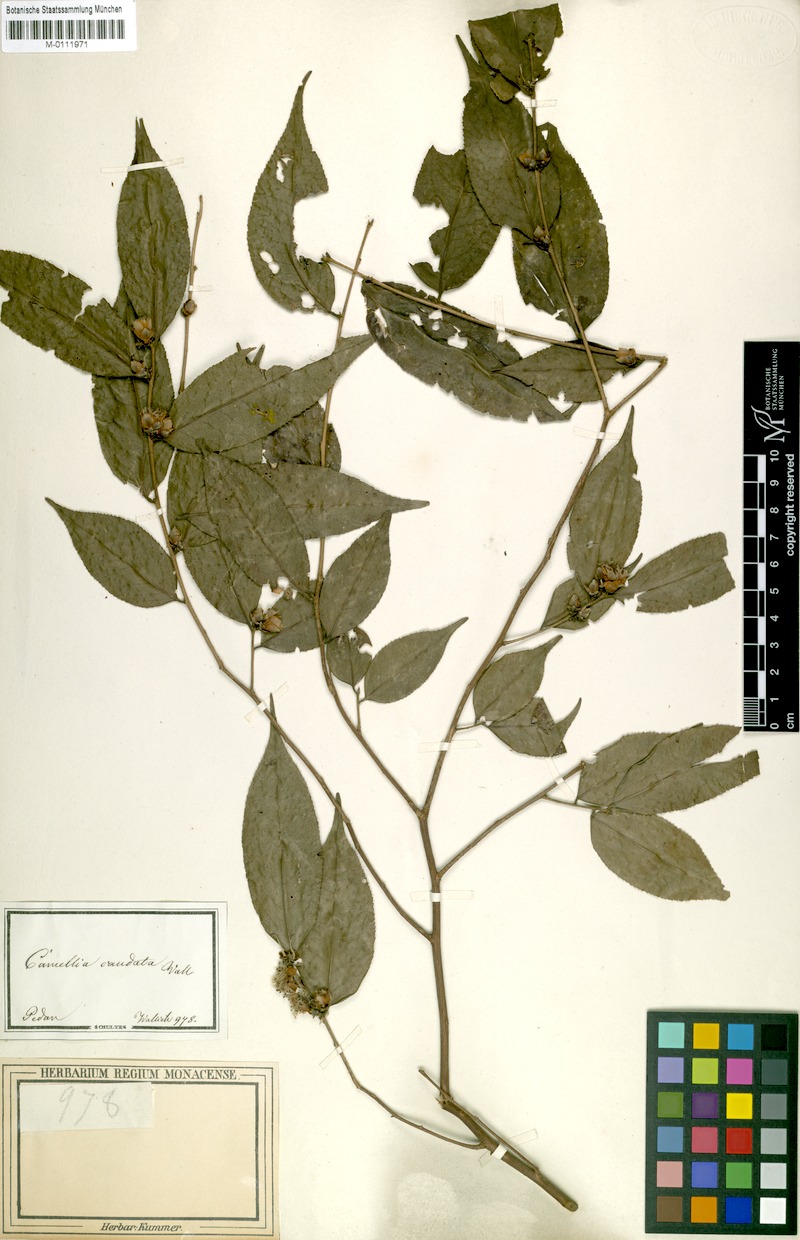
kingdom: Plantae
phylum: Tracheophyta
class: Magnoliopsida
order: Ericales
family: Theaceae
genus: Camellia
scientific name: Camellia caudata
